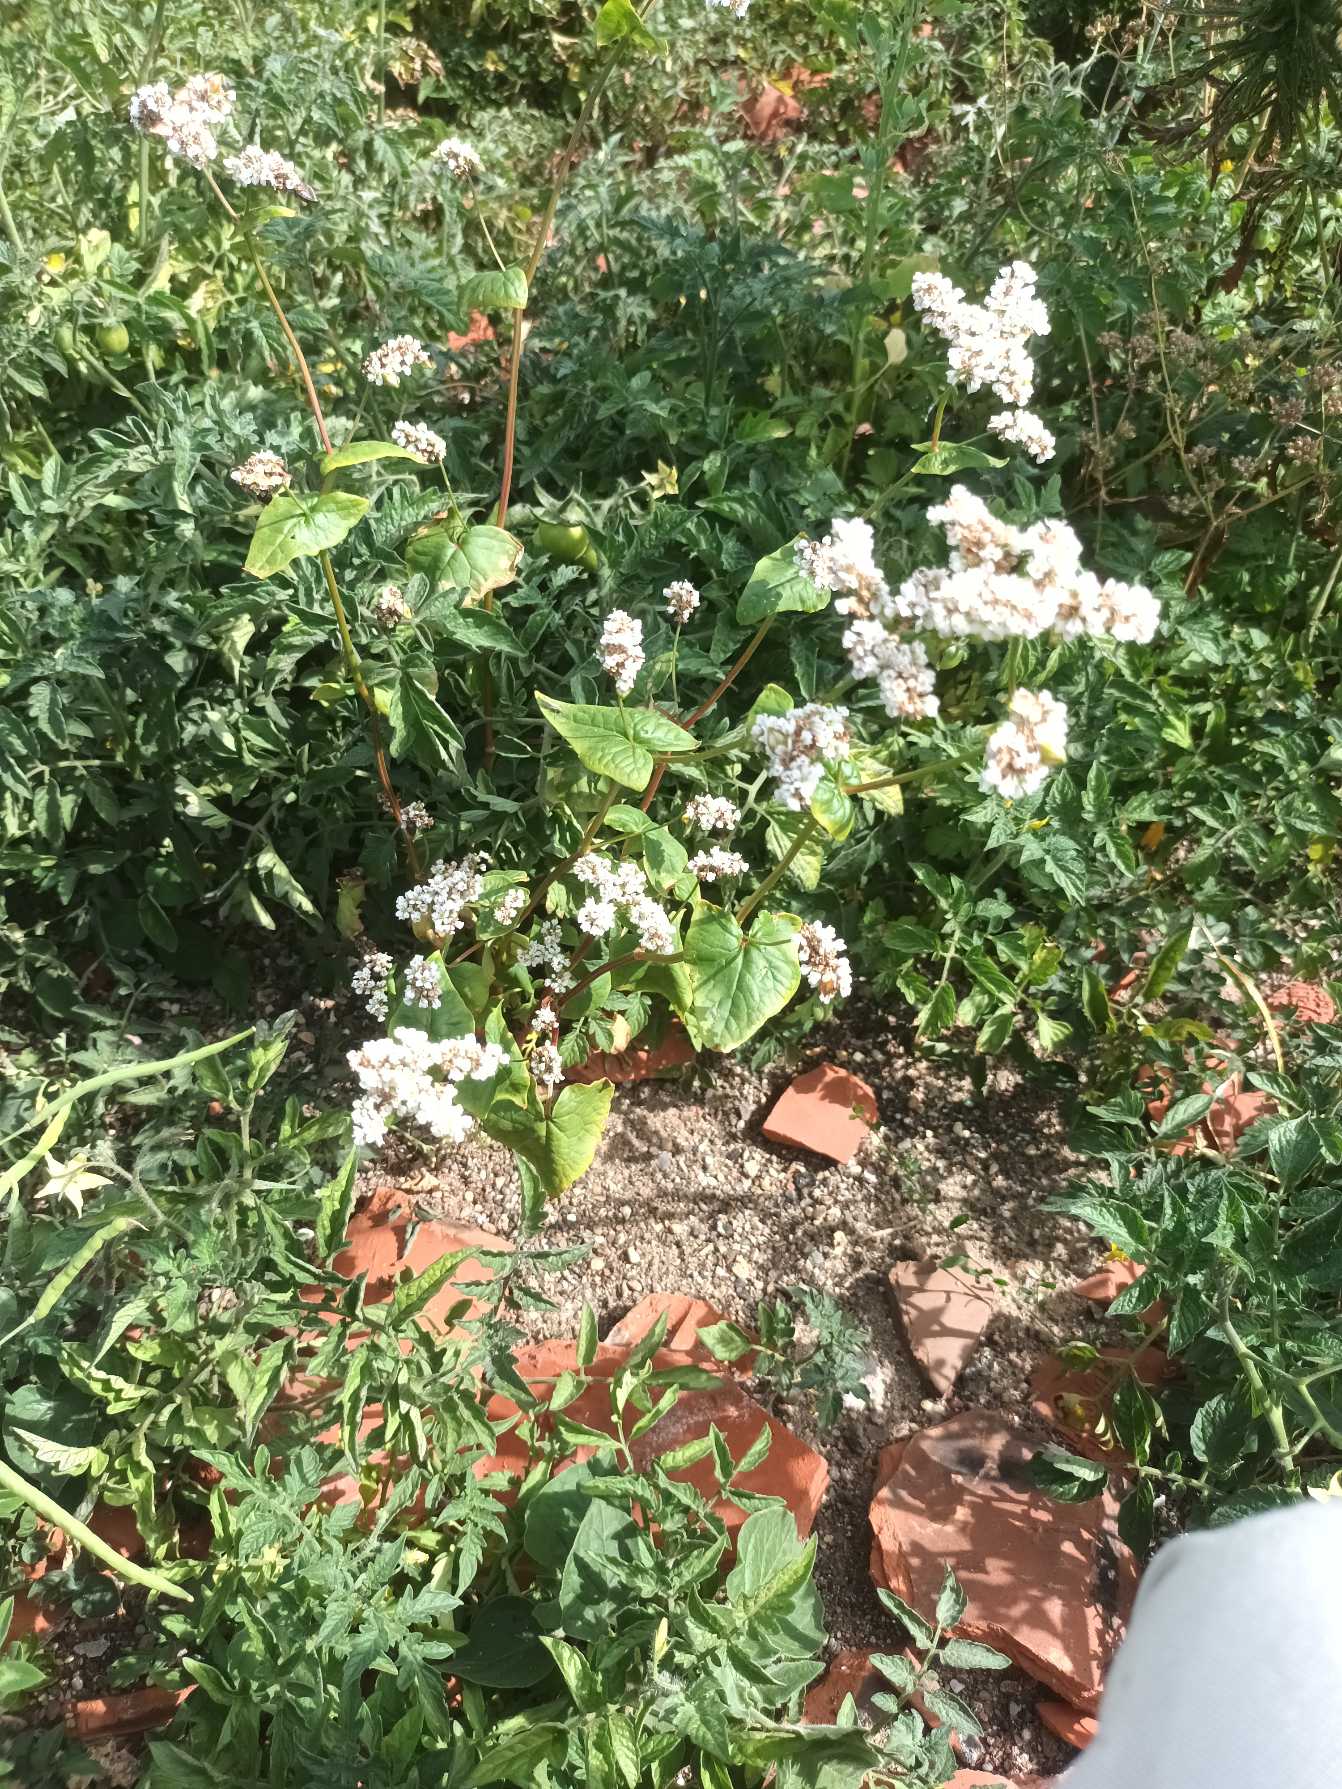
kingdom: Plantae
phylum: Tracheophyta
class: Magnoliopsida
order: Caryophyllales
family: Polygonaceae
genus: Fagopyrum
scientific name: Fagopyrum esculentum
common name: Almindelig boghvede
